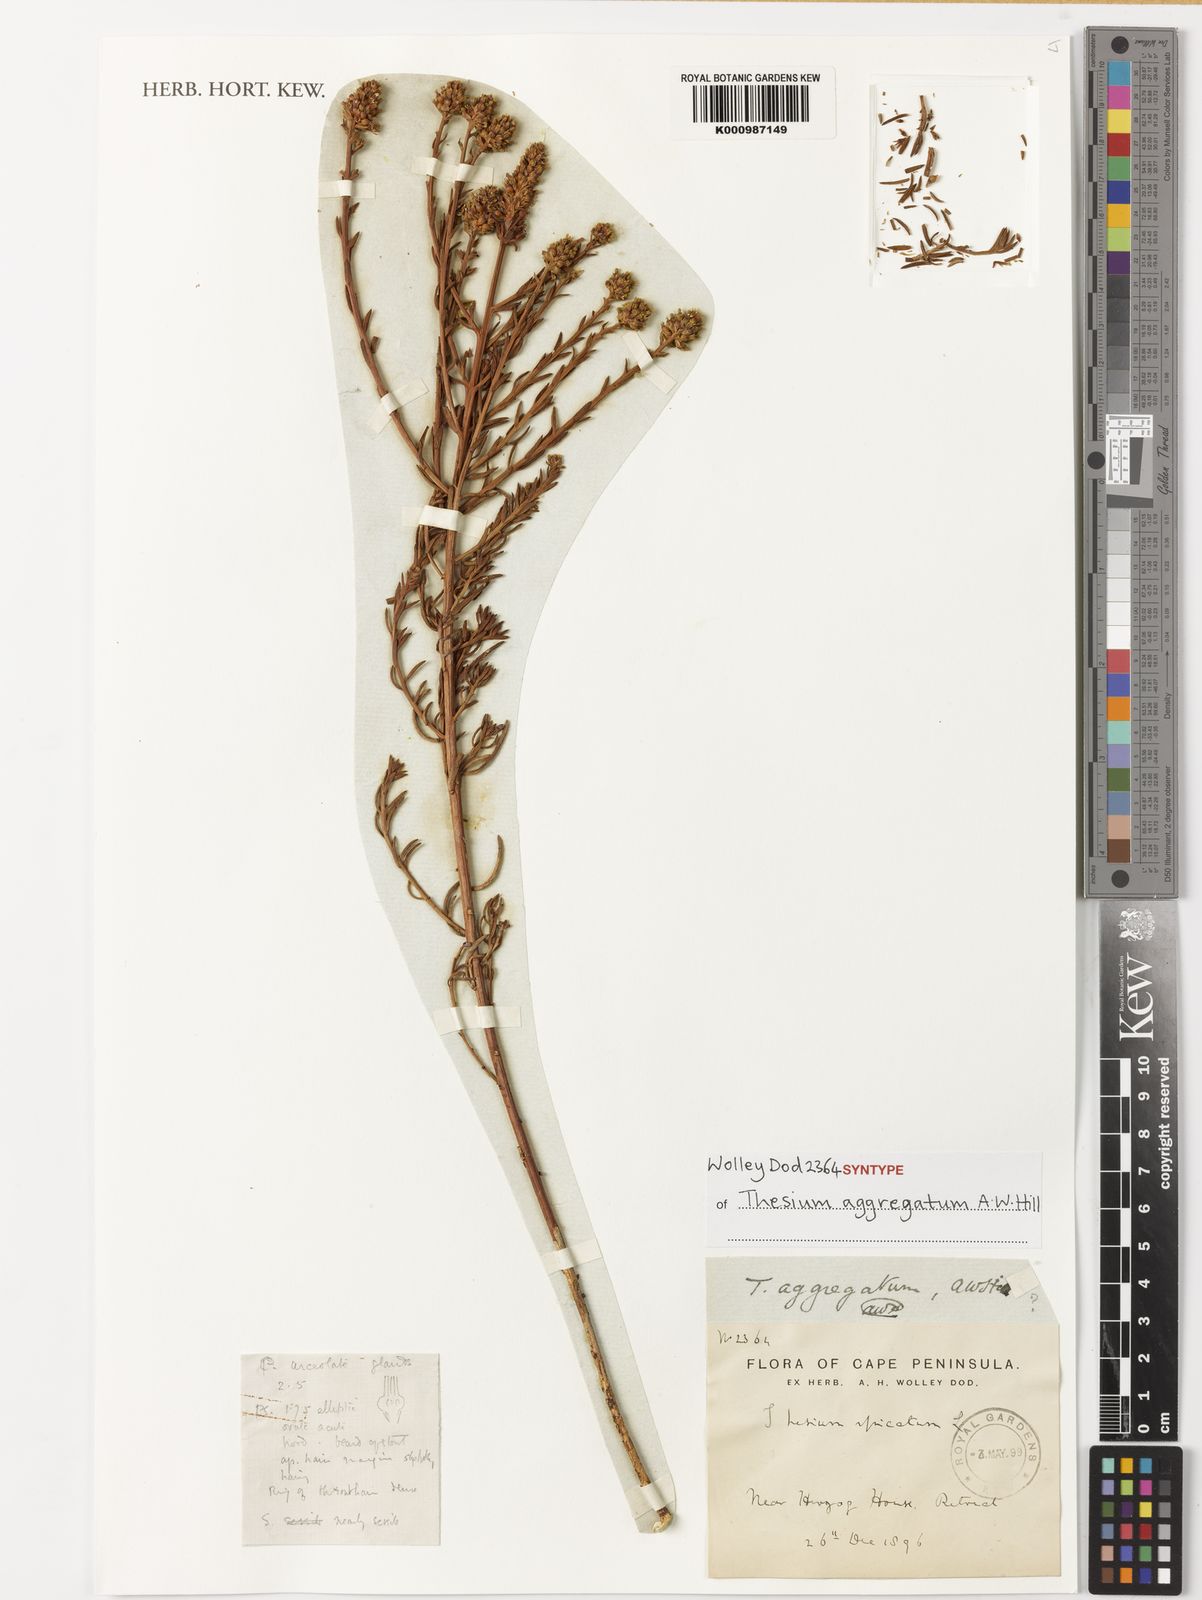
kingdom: Plantae
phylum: Tracheophyta
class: Magnoliopsida
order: Santalales
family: Thesiaceae
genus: Thesium
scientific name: Thesium aggregatum
